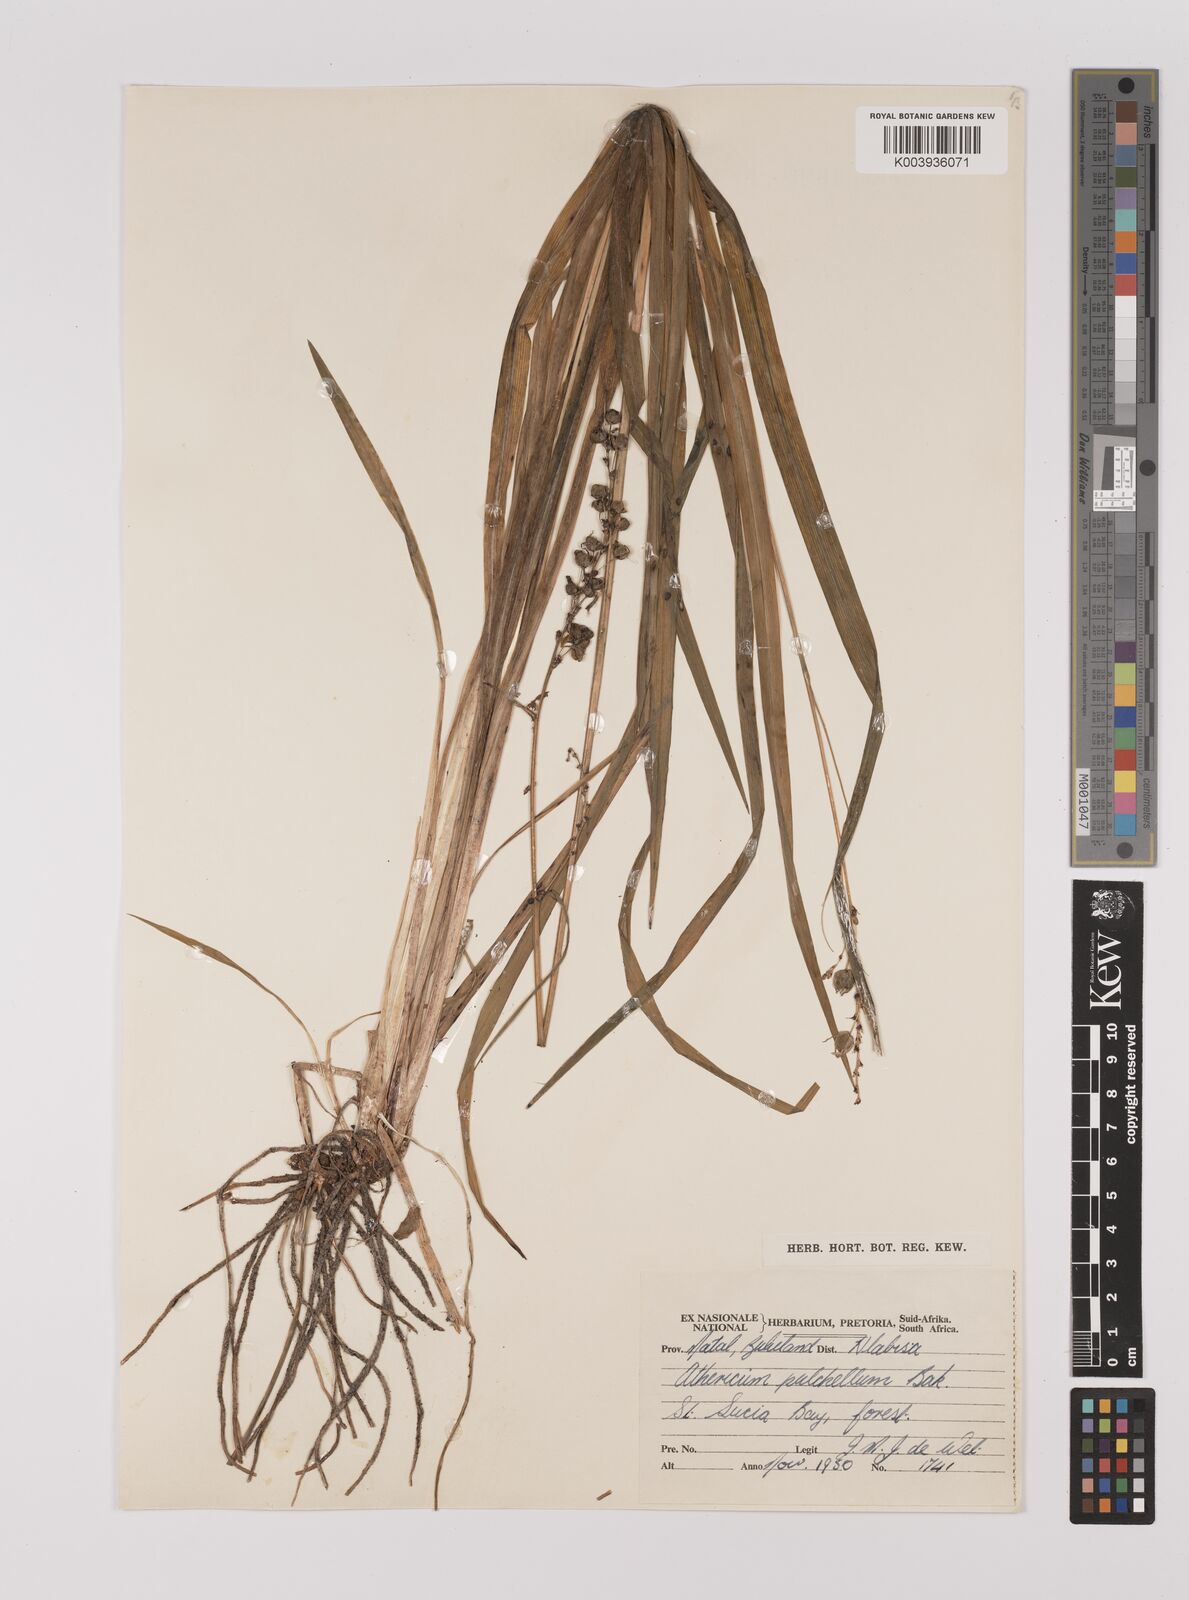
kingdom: Plantae
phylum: Tracheophyta
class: Liliopsida
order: Asparagales
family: Asparagaceae
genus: Chlorophytum
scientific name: Chlorophytum saundersiae
